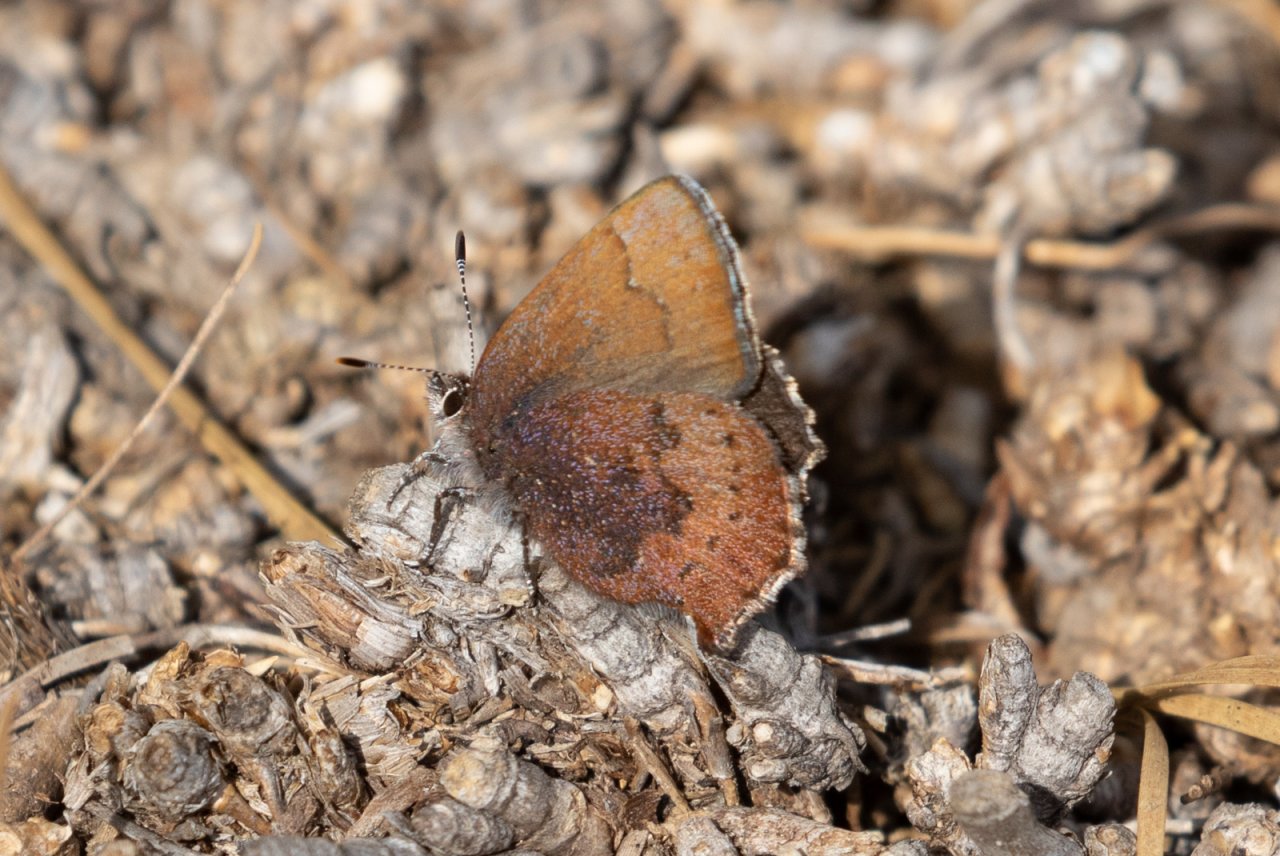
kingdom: Animalia
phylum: Arthropoda
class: Insecta
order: Lepidoptera
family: Lycaenidae
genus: Incisalia
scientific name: Incisalia irioides
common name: Brown Elfin
